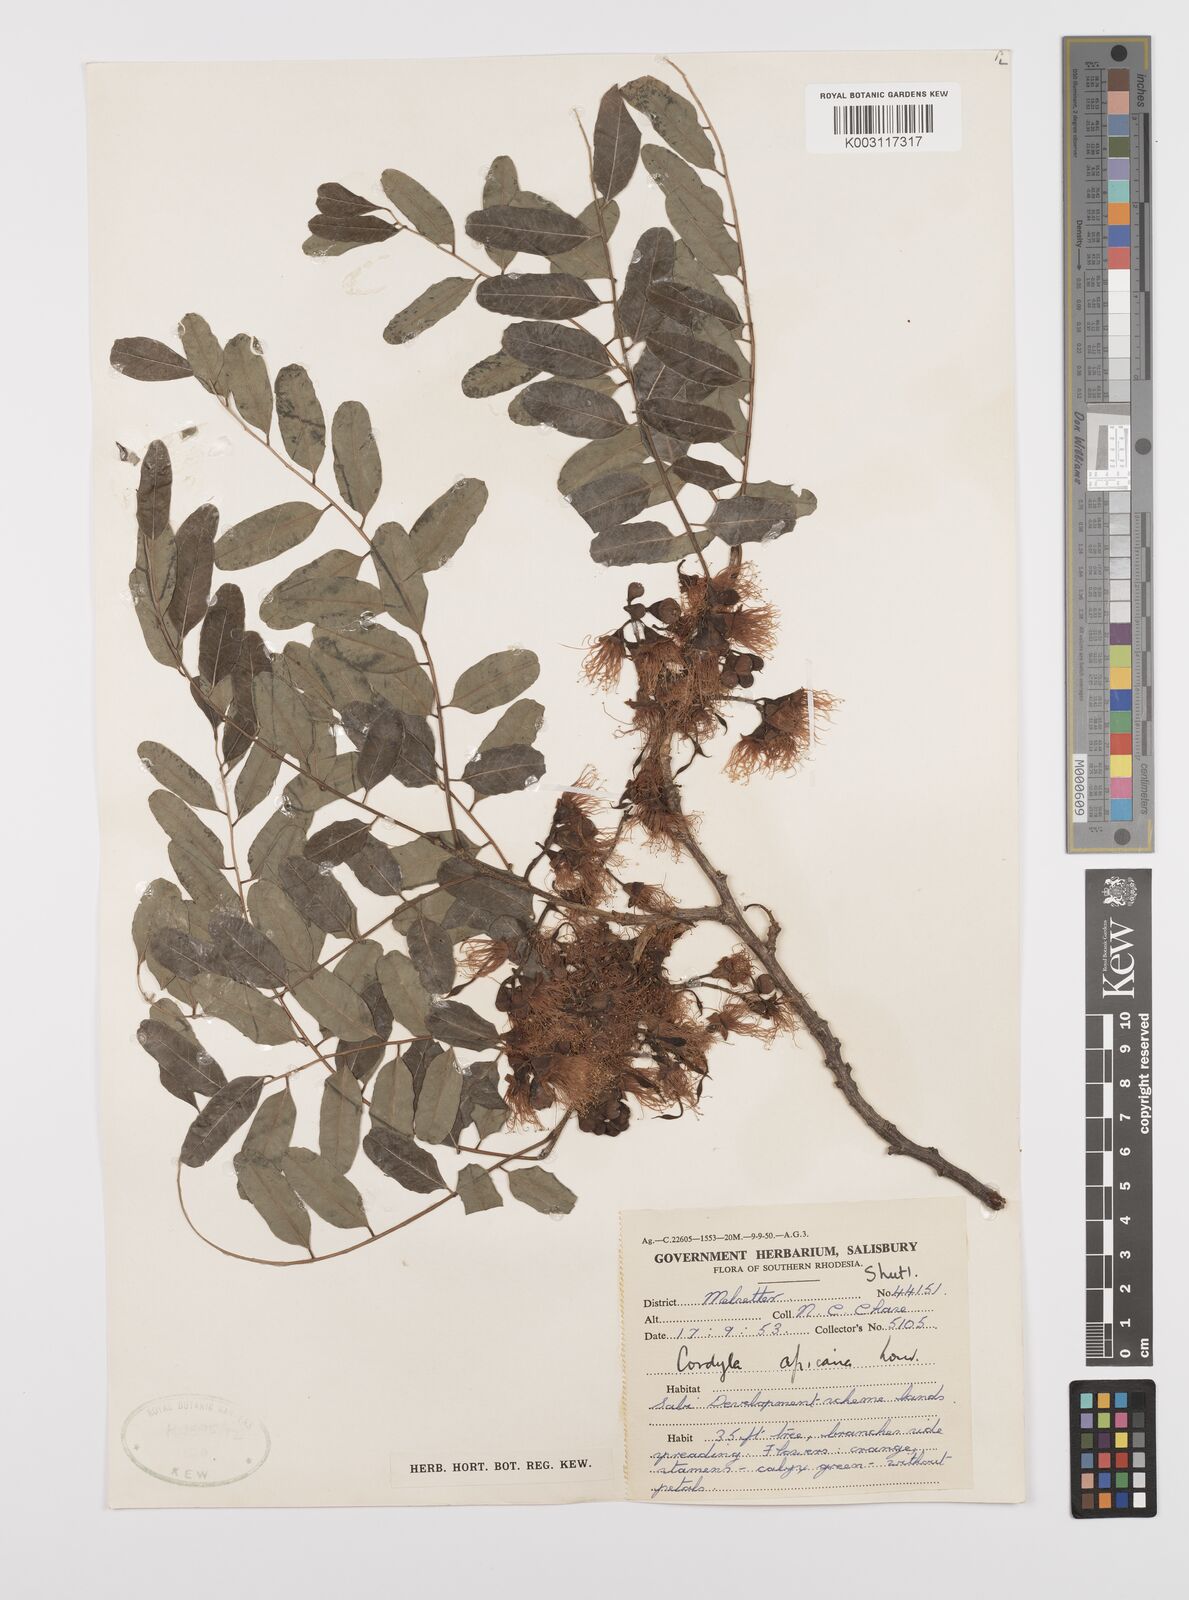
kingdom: Plantae
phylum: Tracheophyta
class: Magnoliopsida
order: Fabales
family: Fabaceae
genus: Cordyla
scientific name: Cordyla africana
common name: Wild mango
